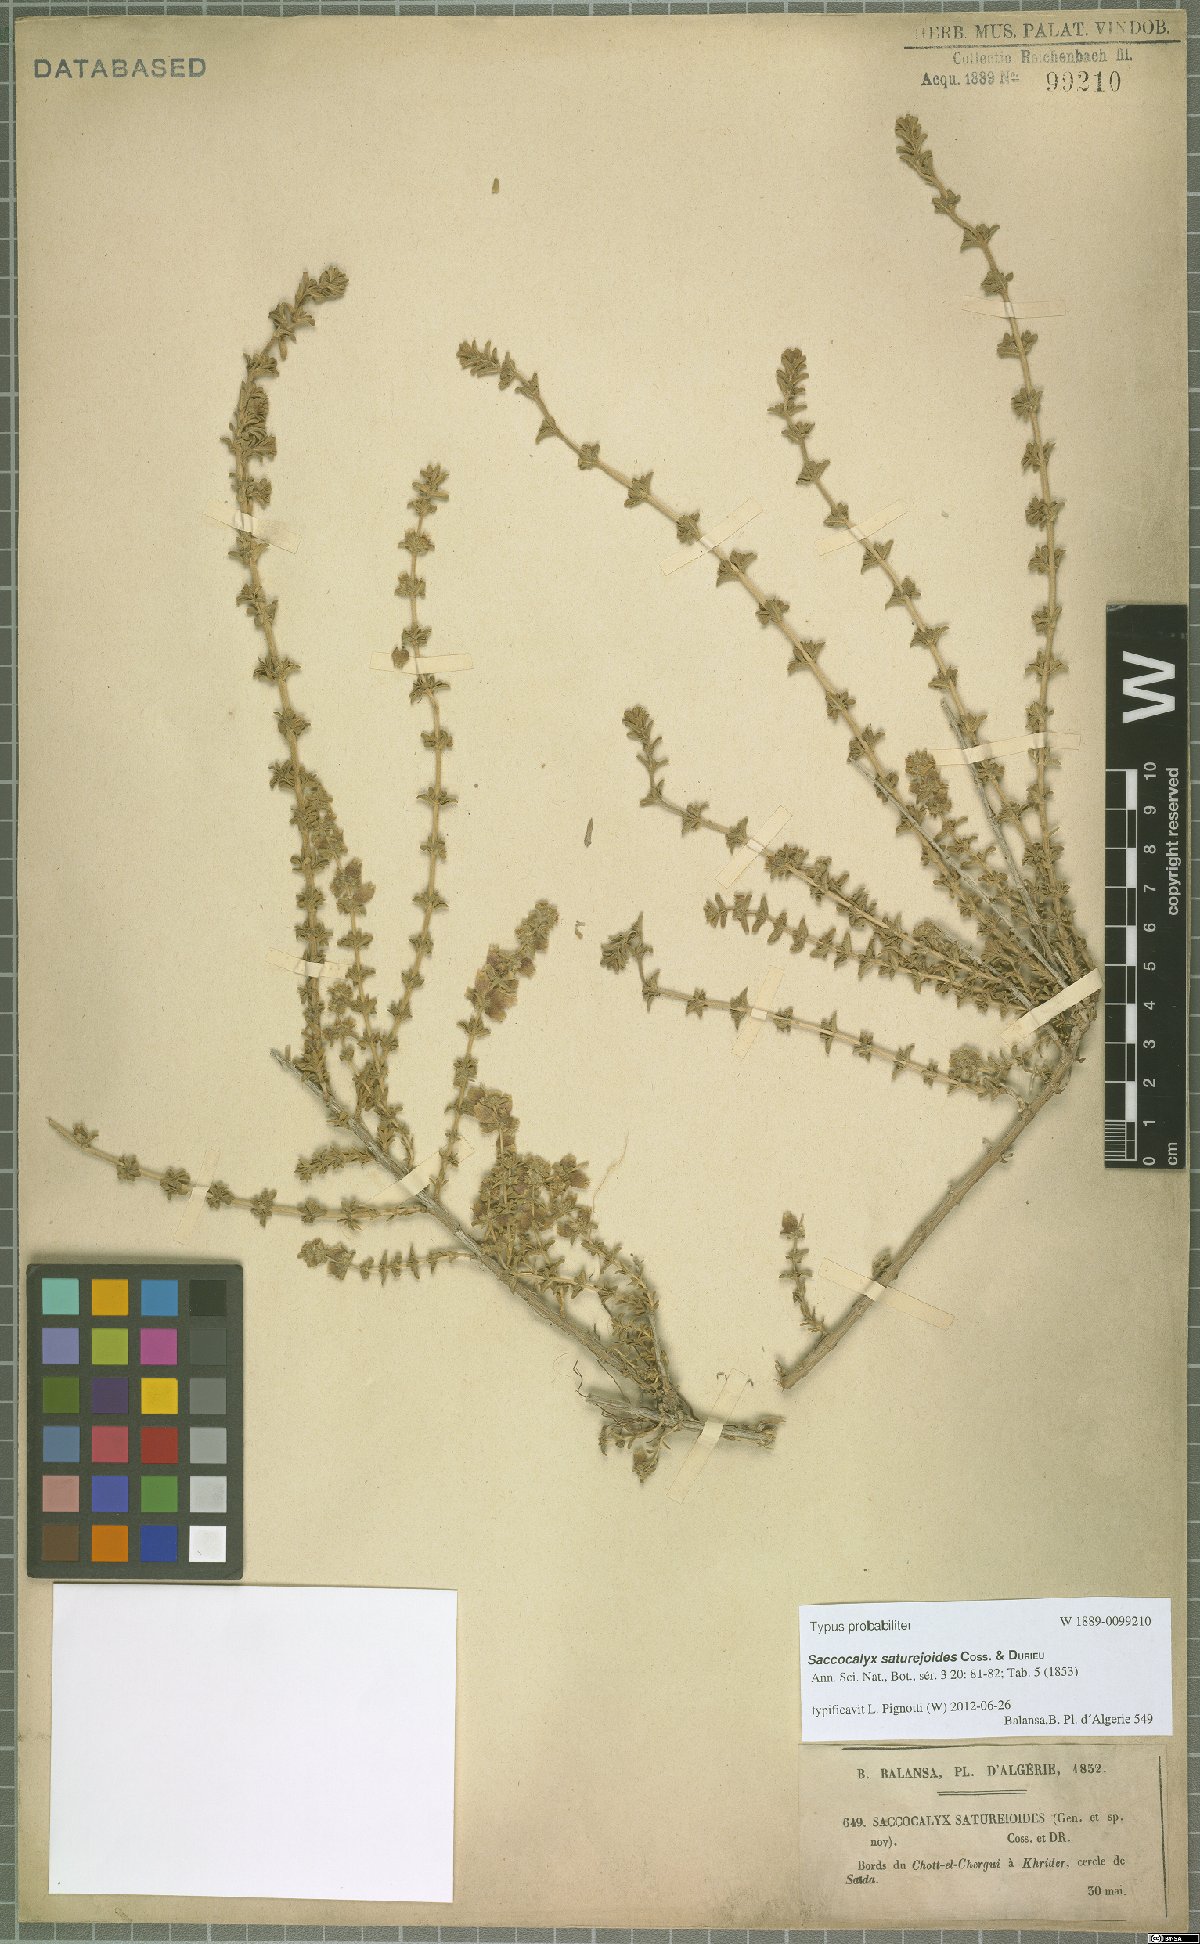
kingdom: Plantae
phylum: Tracheophyta
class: Magnoliopsida
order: Lamiales
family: Lamiaceae
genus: Saccocalyx
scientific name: Saccocalyx saturejoides
